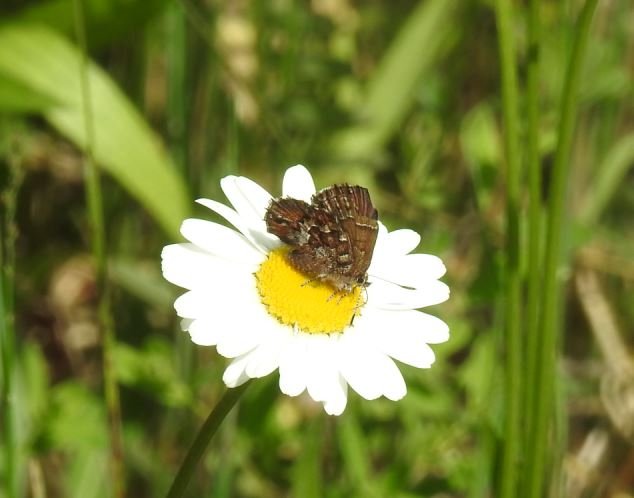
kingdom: Animalia
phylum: Arthropoda
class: Insecta
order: Lepidoptera
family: Lycaenidae
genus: Incisalia
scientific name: Incisalia niphon
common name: Eastern Pine Elfin
